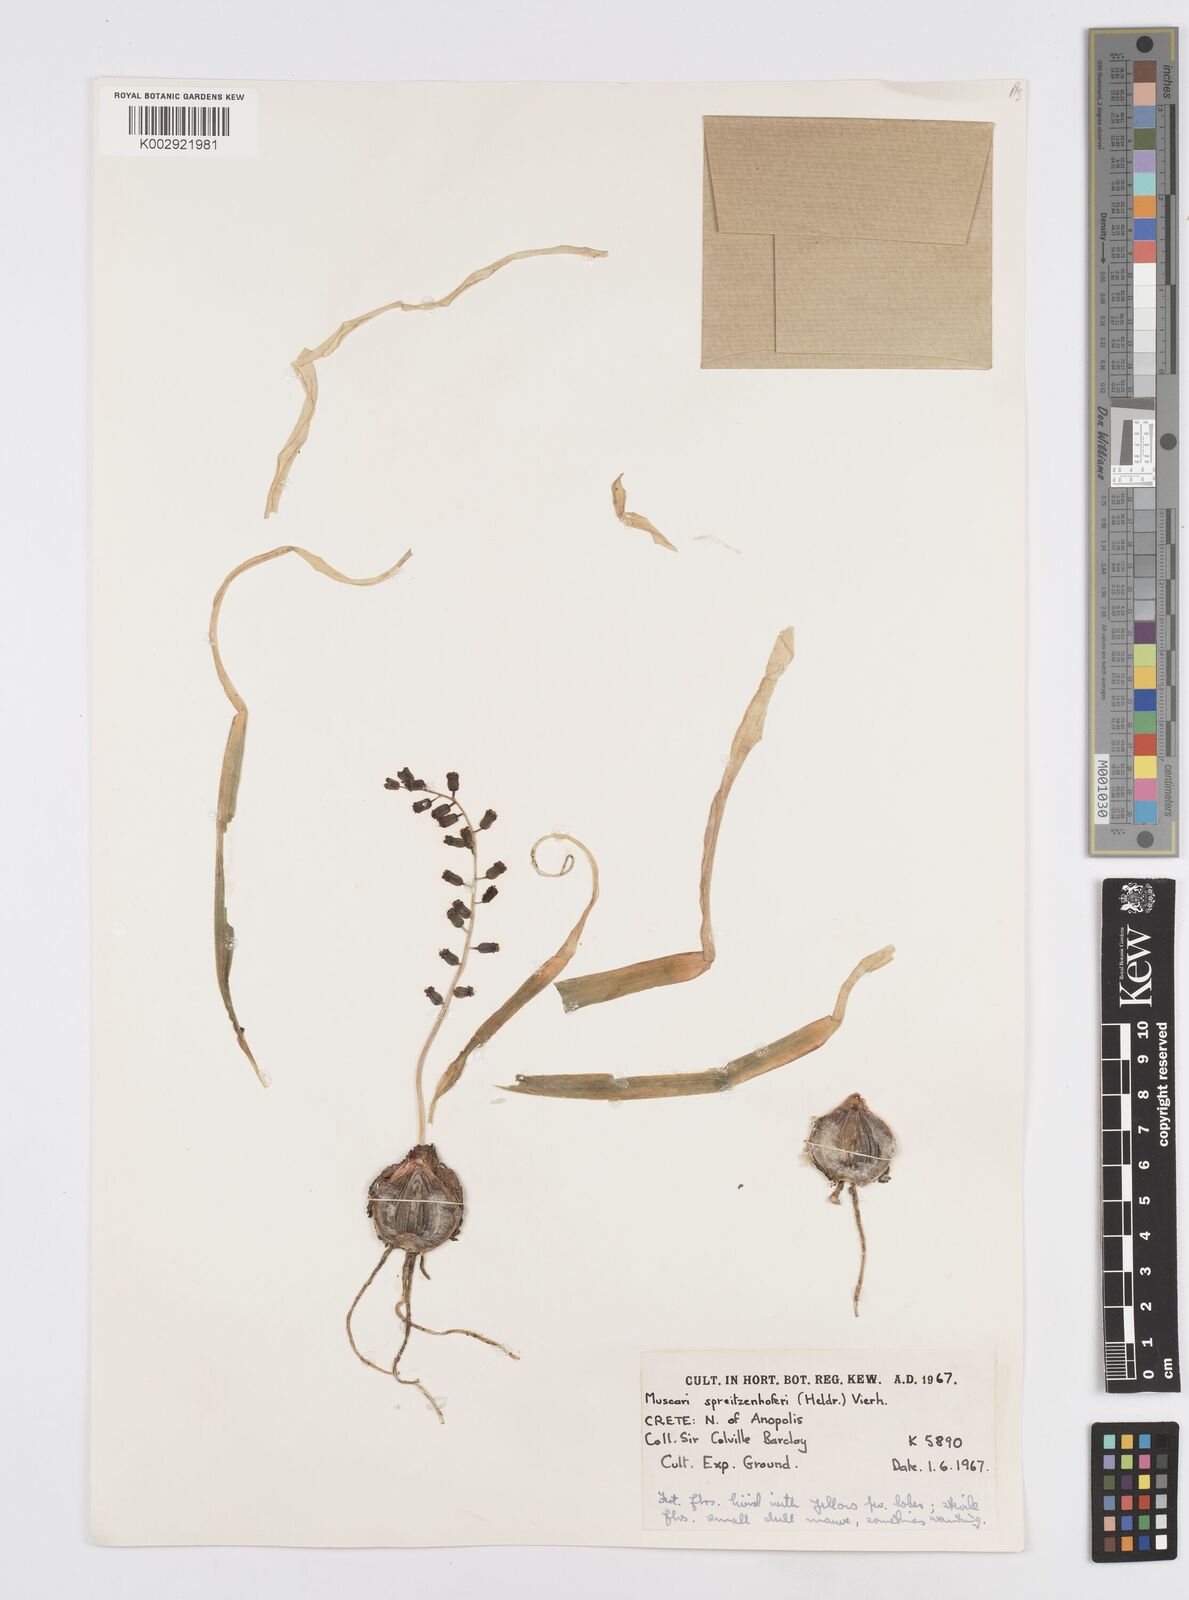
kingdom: Plantae
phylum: Tracheophyta
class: Liliopsida
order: Asparagales
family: Asparagaceae
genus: Muscari
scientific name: Muscari spreitzenhoferi
